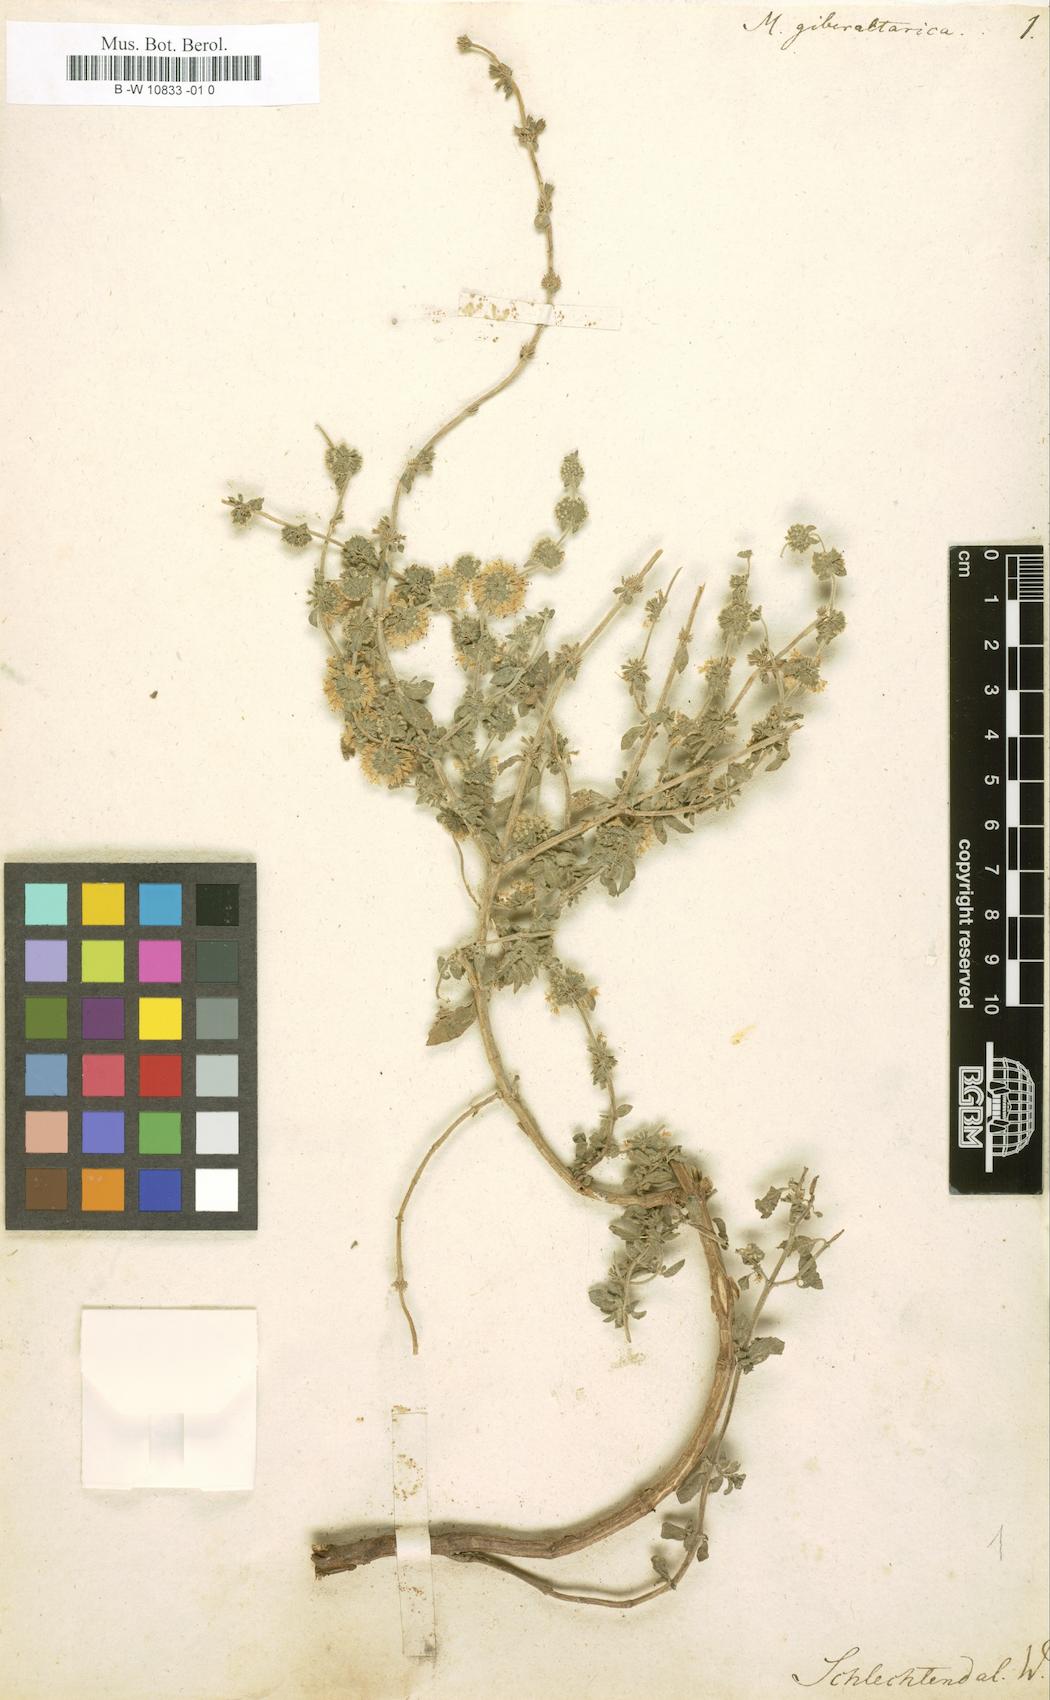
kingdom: Plantae
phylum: Tracheophyta
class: Magnoliopsida
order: Lamiales
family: Lamiaceae
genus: Mentha
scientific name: Mentha pulegium
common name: Pennyroyal
